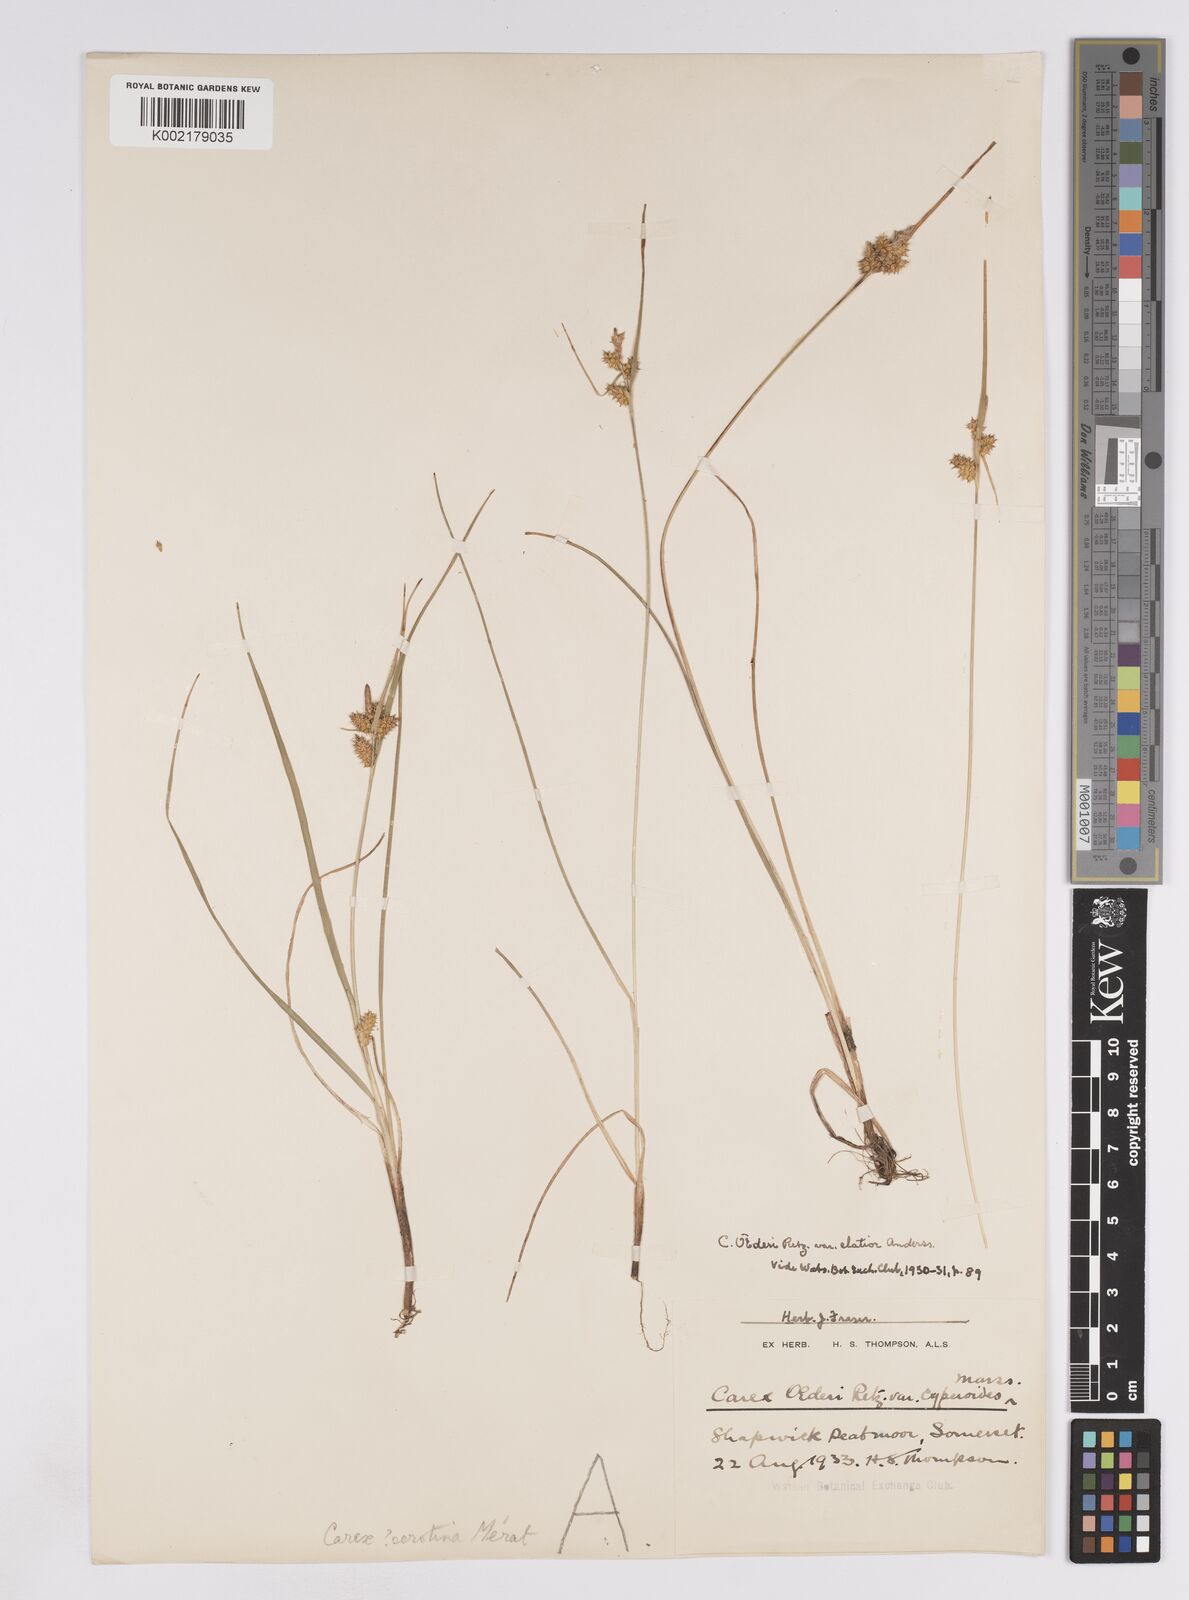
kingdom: Plantae
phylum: Tracheophyta
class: Liliopsida
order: Poales
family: Cyperaceae
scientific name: Cyperaceae
